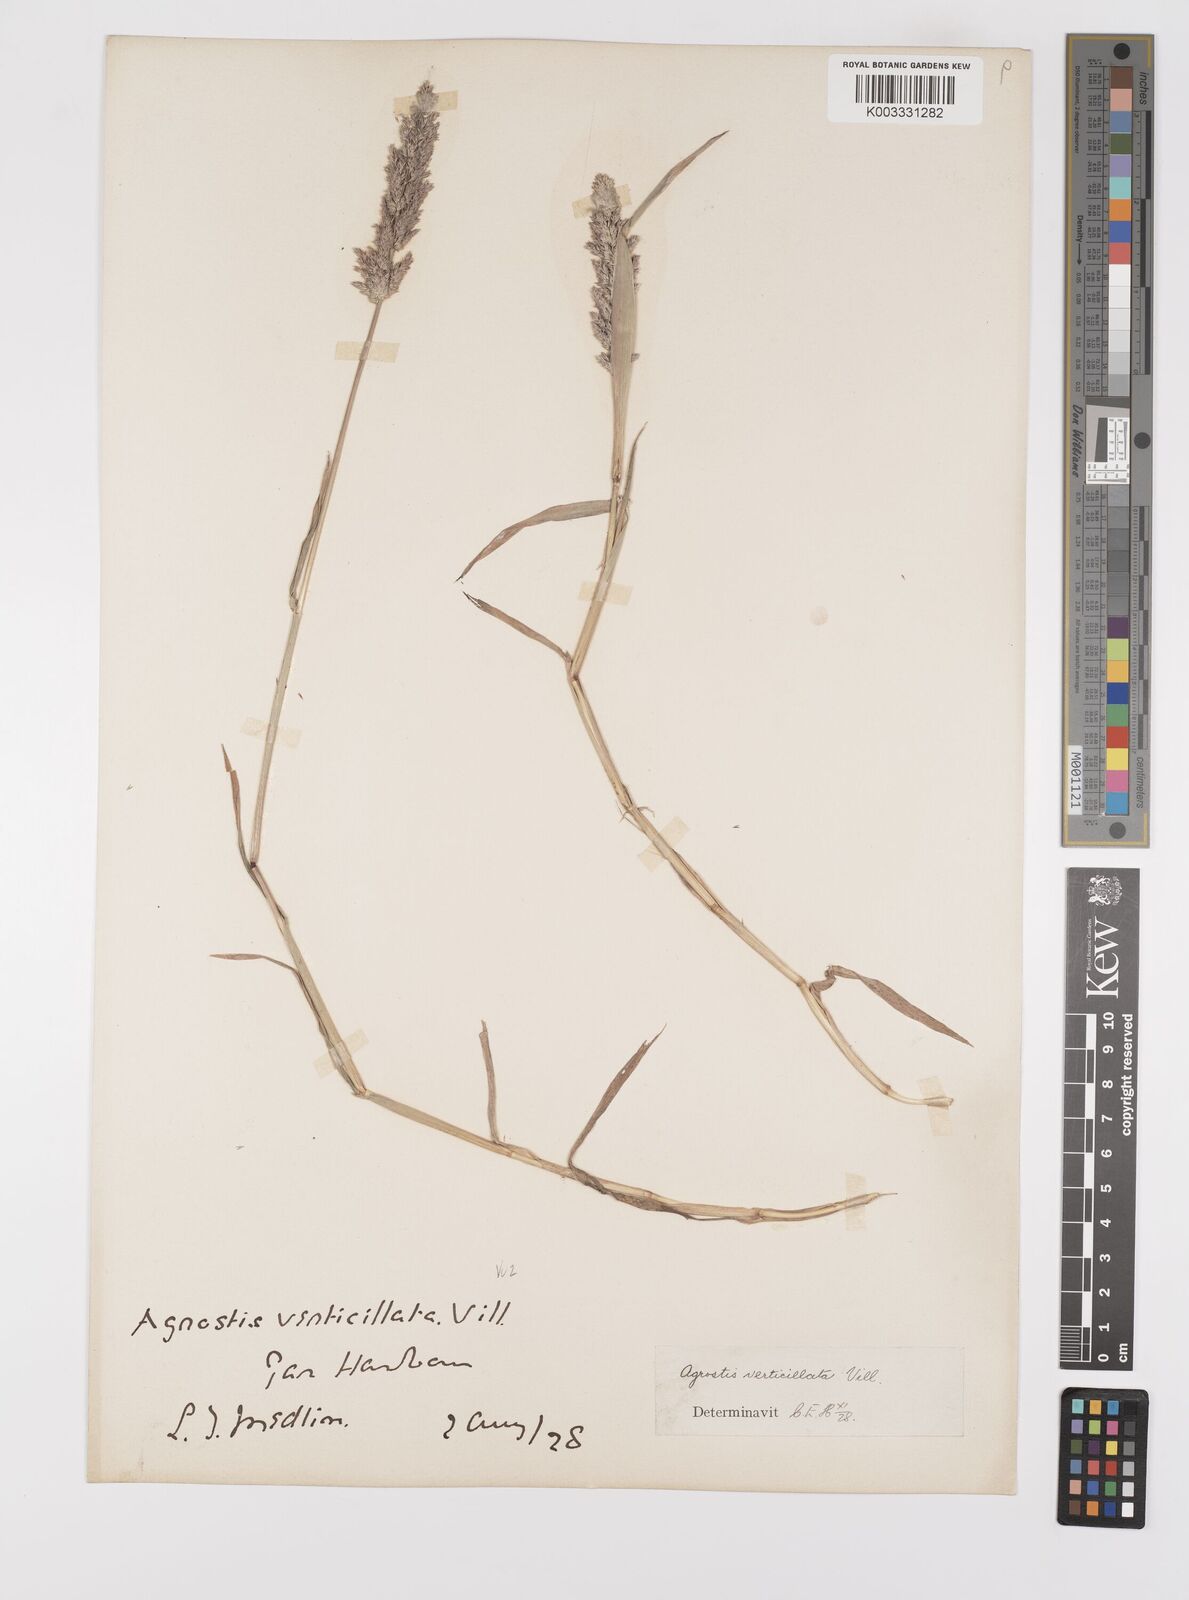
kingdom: Plantae
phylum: Tracheophyta
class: Liliopsida
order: Poales
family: Poaceae
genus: Polypogon
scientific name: Polypogon viridis
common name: Water bent
